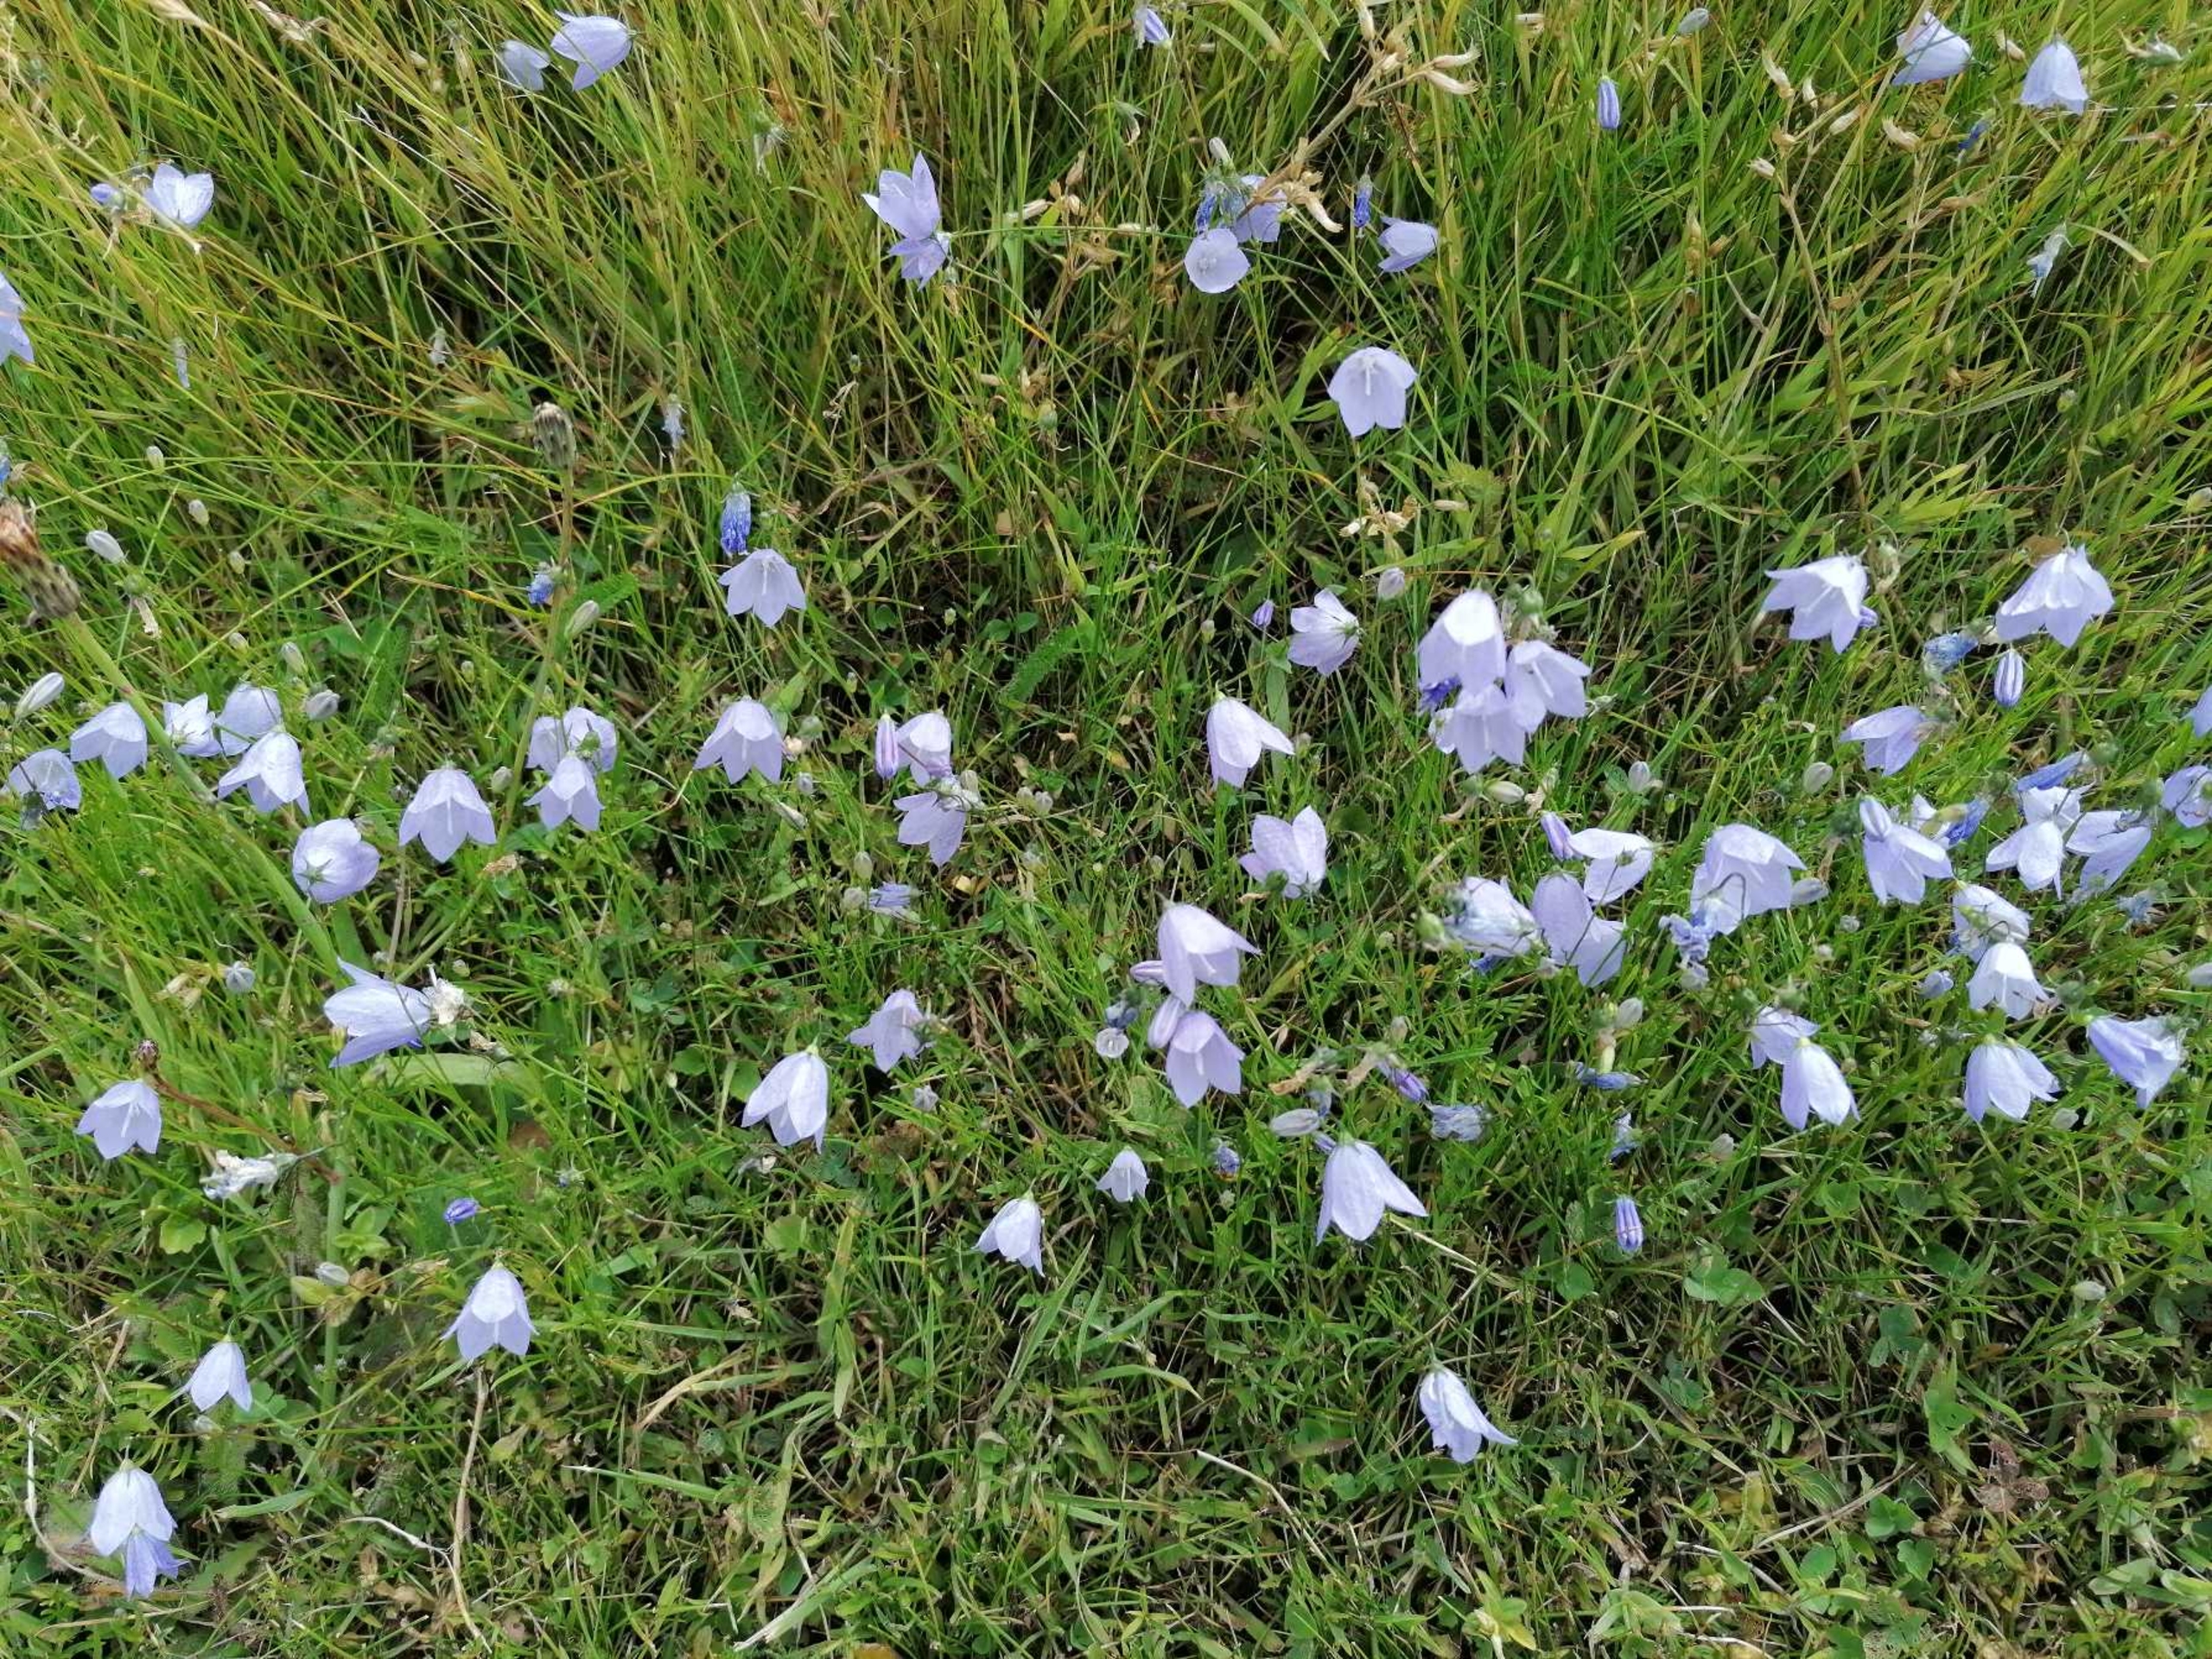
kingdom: Plantae
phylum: Tracheophyta
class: Magnoliopsida
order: Asterales
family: Campanulaceae
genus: Campanula
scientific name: Campanula rotundifolia
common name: Liden klokke
